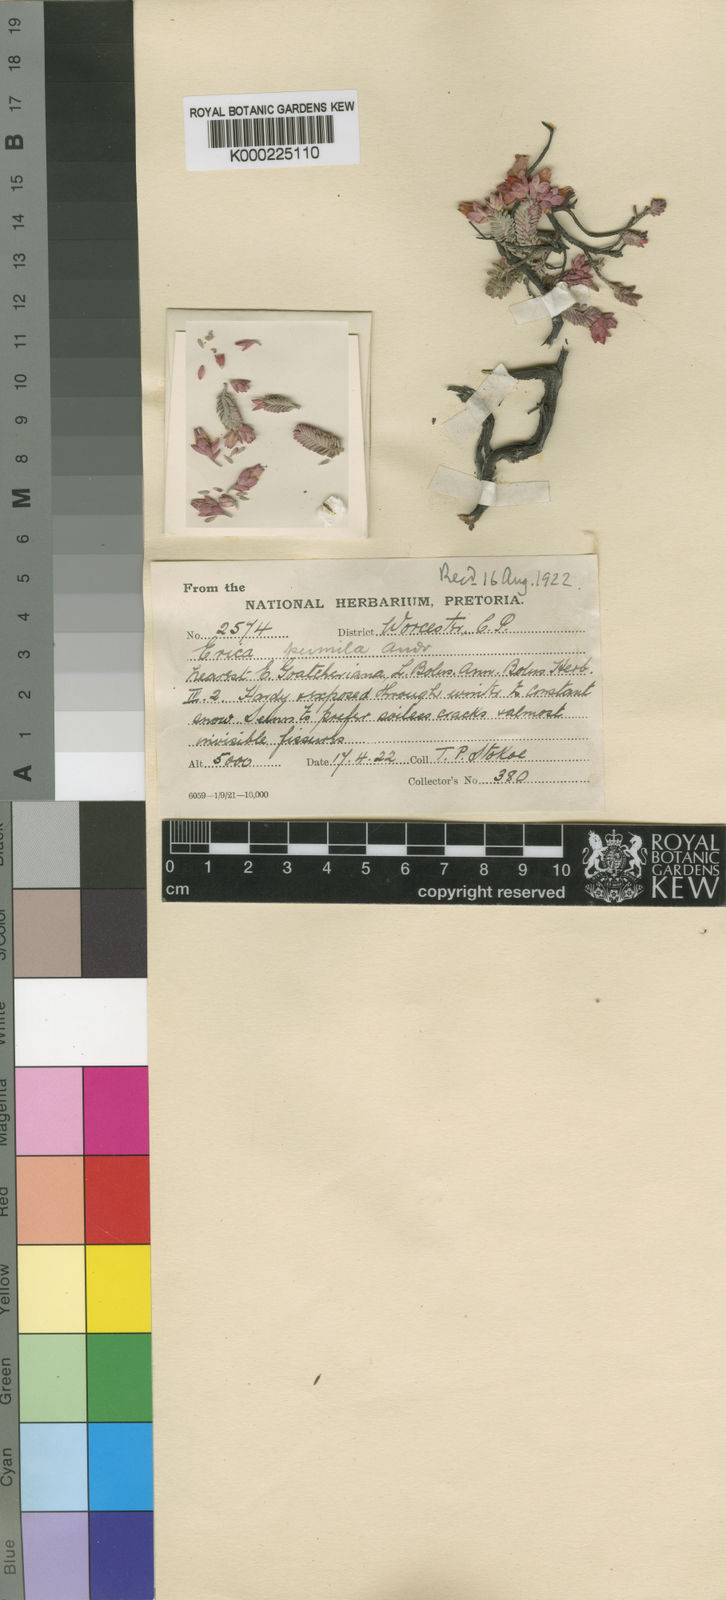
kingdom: Plantae
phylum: Tracheophyta
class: Magnoliopsida
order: Ericales
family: Ericaceae
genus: Erica
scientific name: Erica goatcheriana
